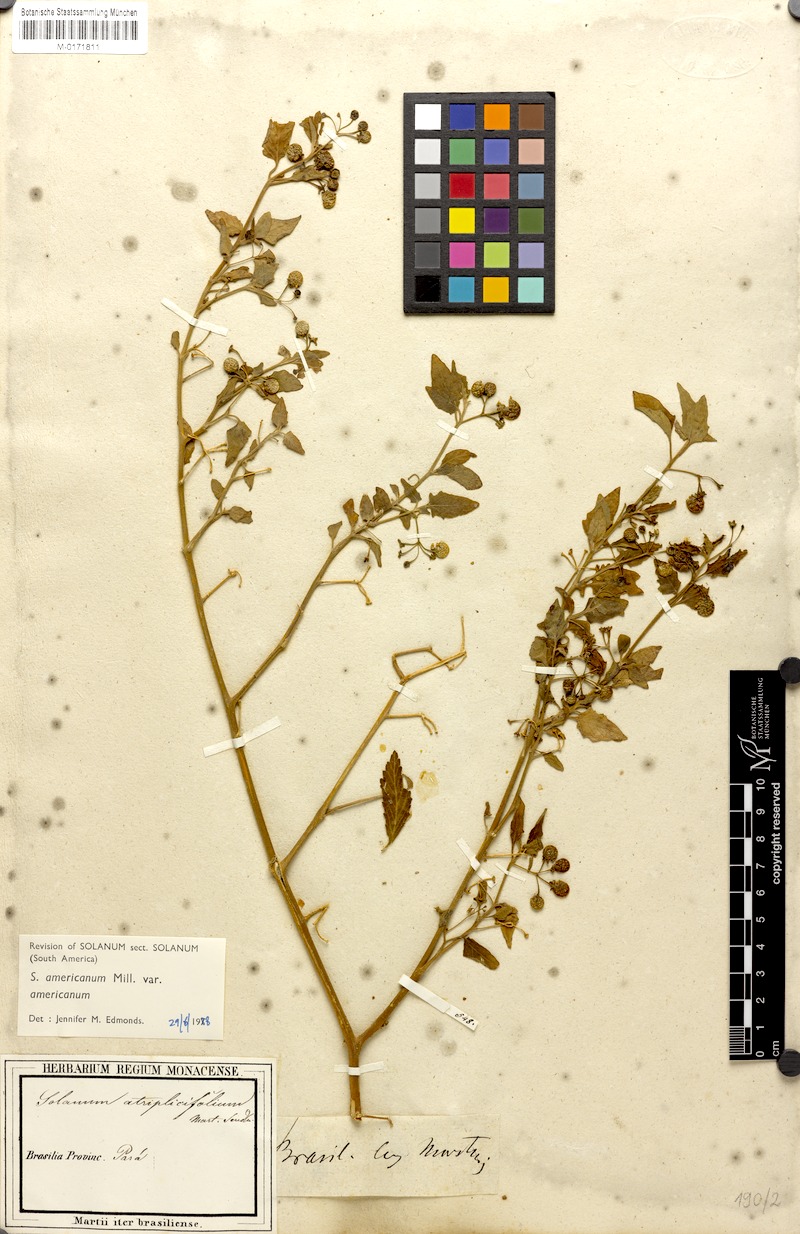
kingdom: Plantae
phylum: Tracheophyta
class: Magnoliopsida
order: Solanales
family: Solanaceae
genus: Solanum
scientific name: Solanum americanum
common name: American black nightshade
